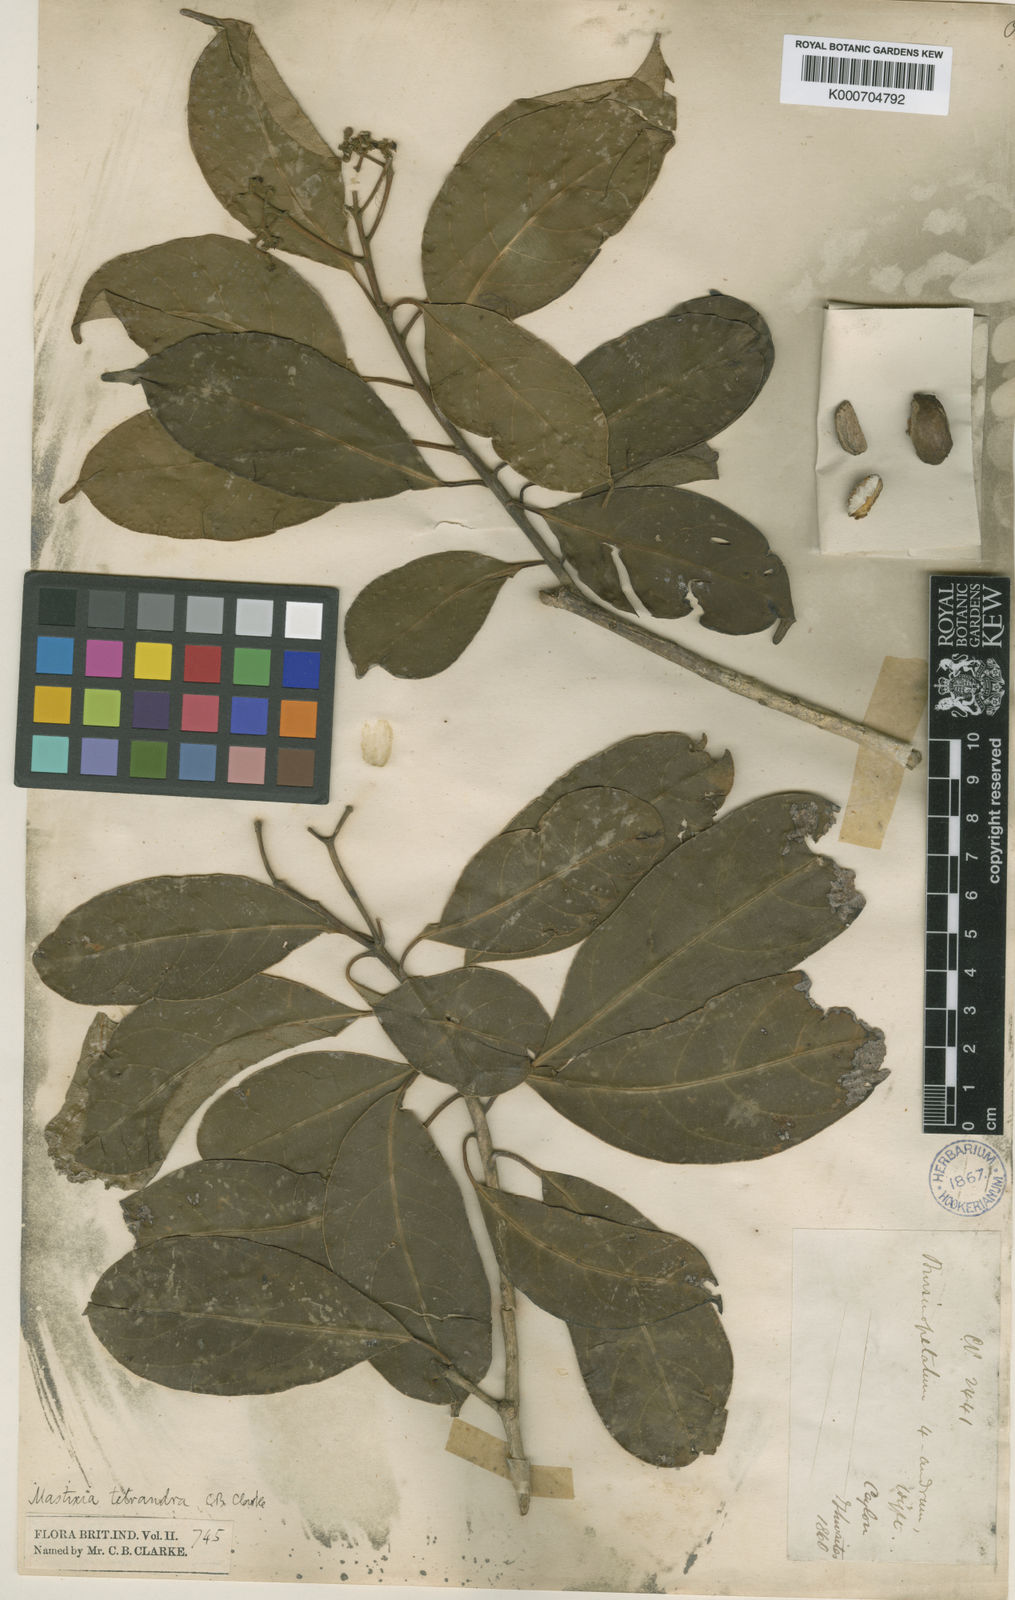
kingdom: Plantae
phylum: Tracheophyta
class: Magnoliopsida
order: Cornales
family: Nyssaceae
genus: Mastixia
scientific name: Mastixia tetrandra
